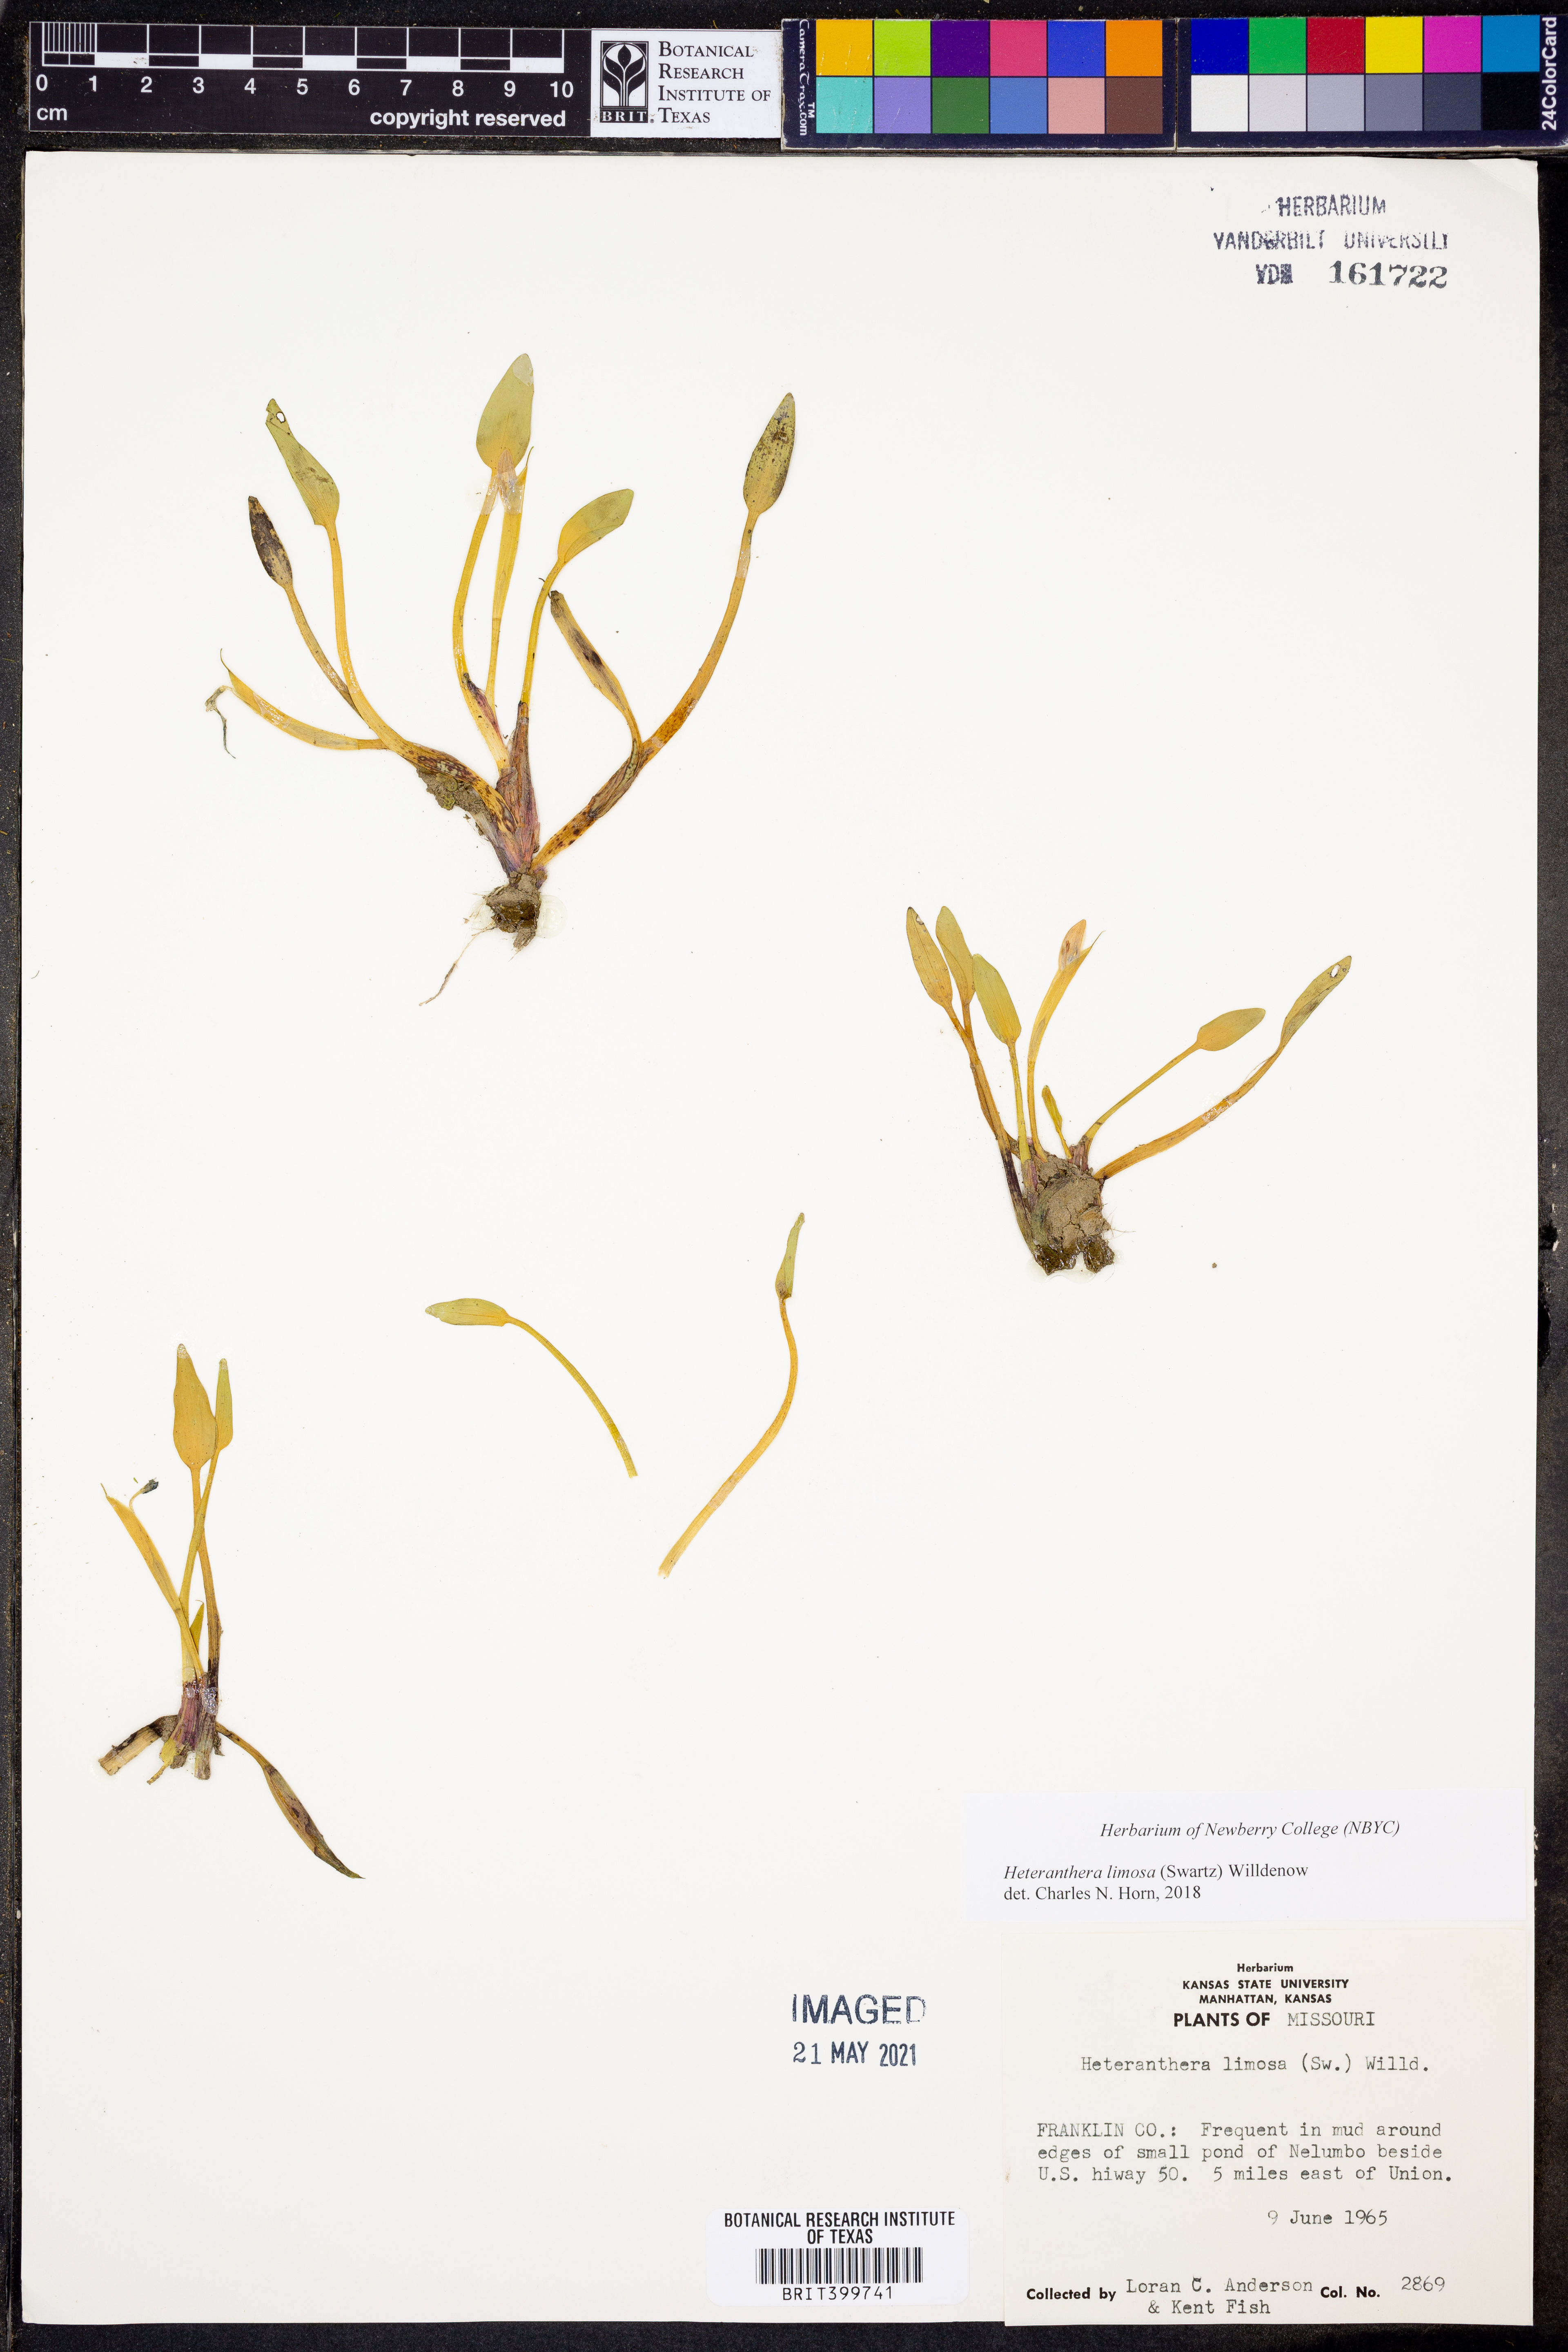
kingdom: Plantae
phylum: Tracheophyta
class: Liliopsida
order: Commelinales
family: Pontederiaceae
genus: Heteranthera
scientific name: Heteranthera limosa
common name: Blue mud-plantain
